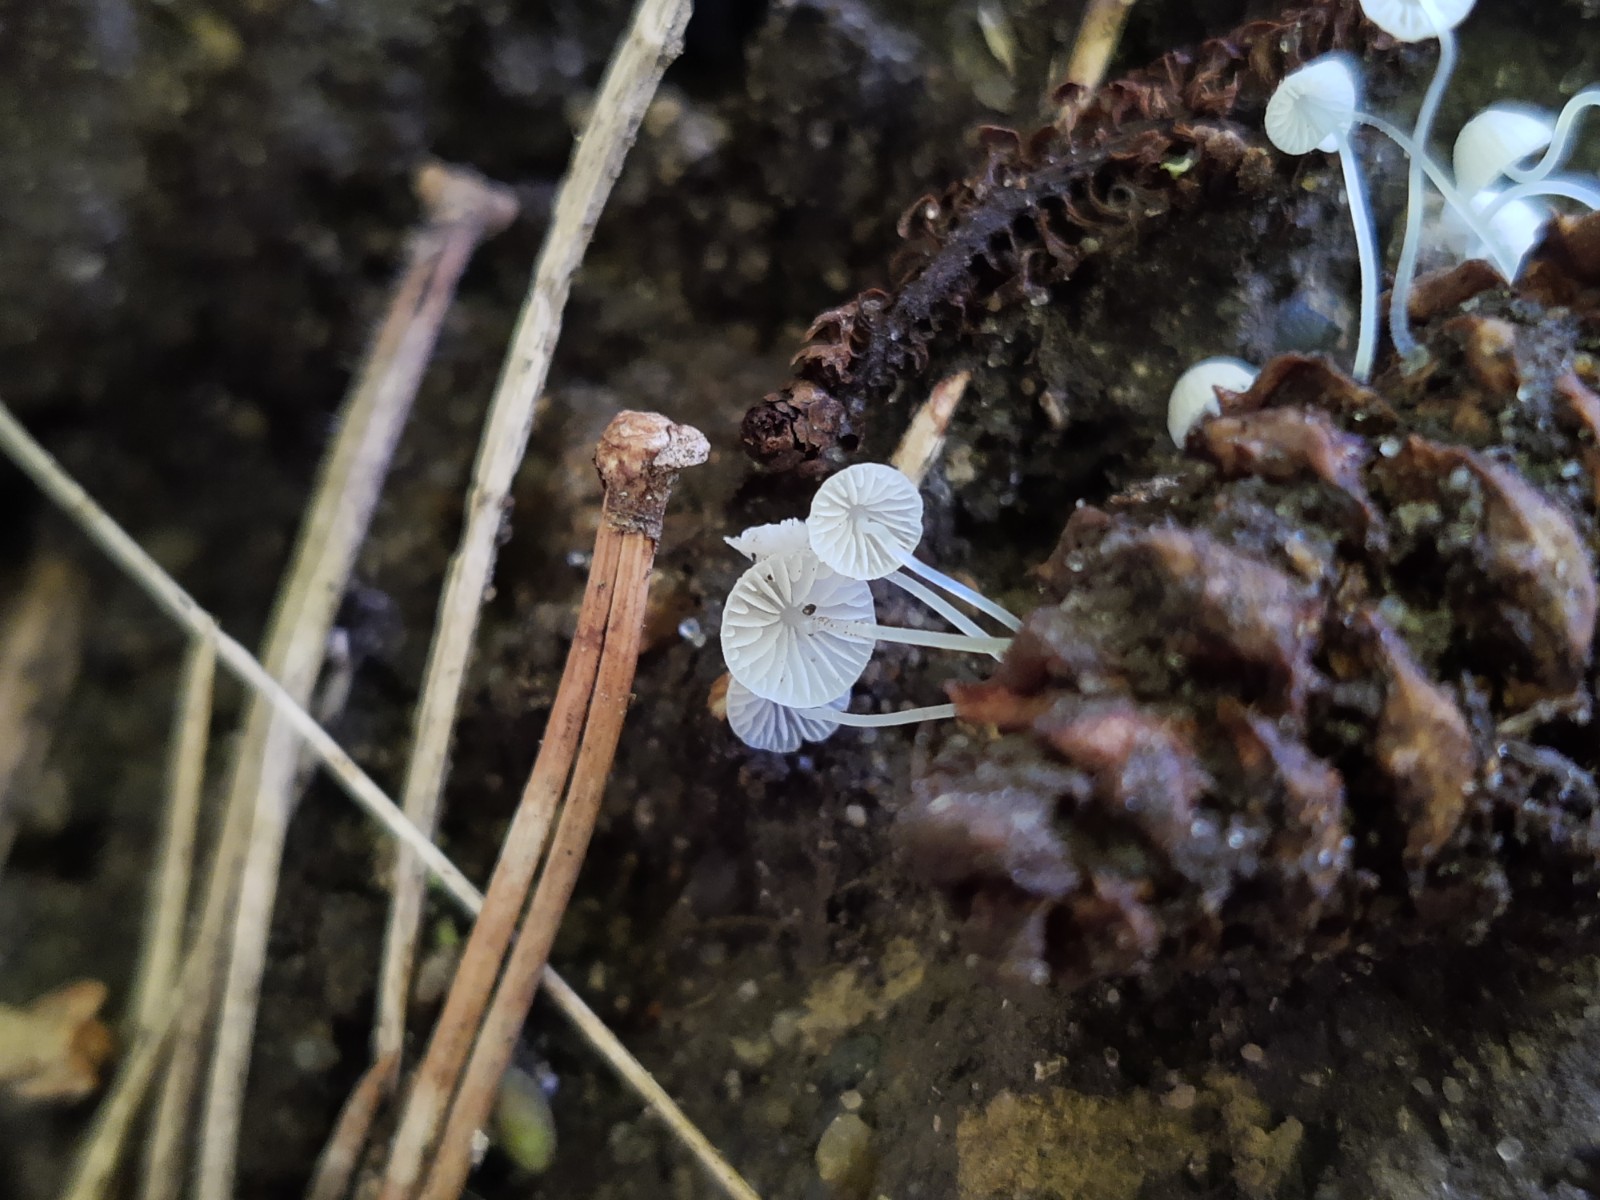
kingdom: Fungi
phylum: Basidiomycota
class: Agaricomycetes
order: Agaricales
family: Mycenaceae
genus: Mycena
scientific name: Mycena tenerrima
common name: pudret huesvamp
